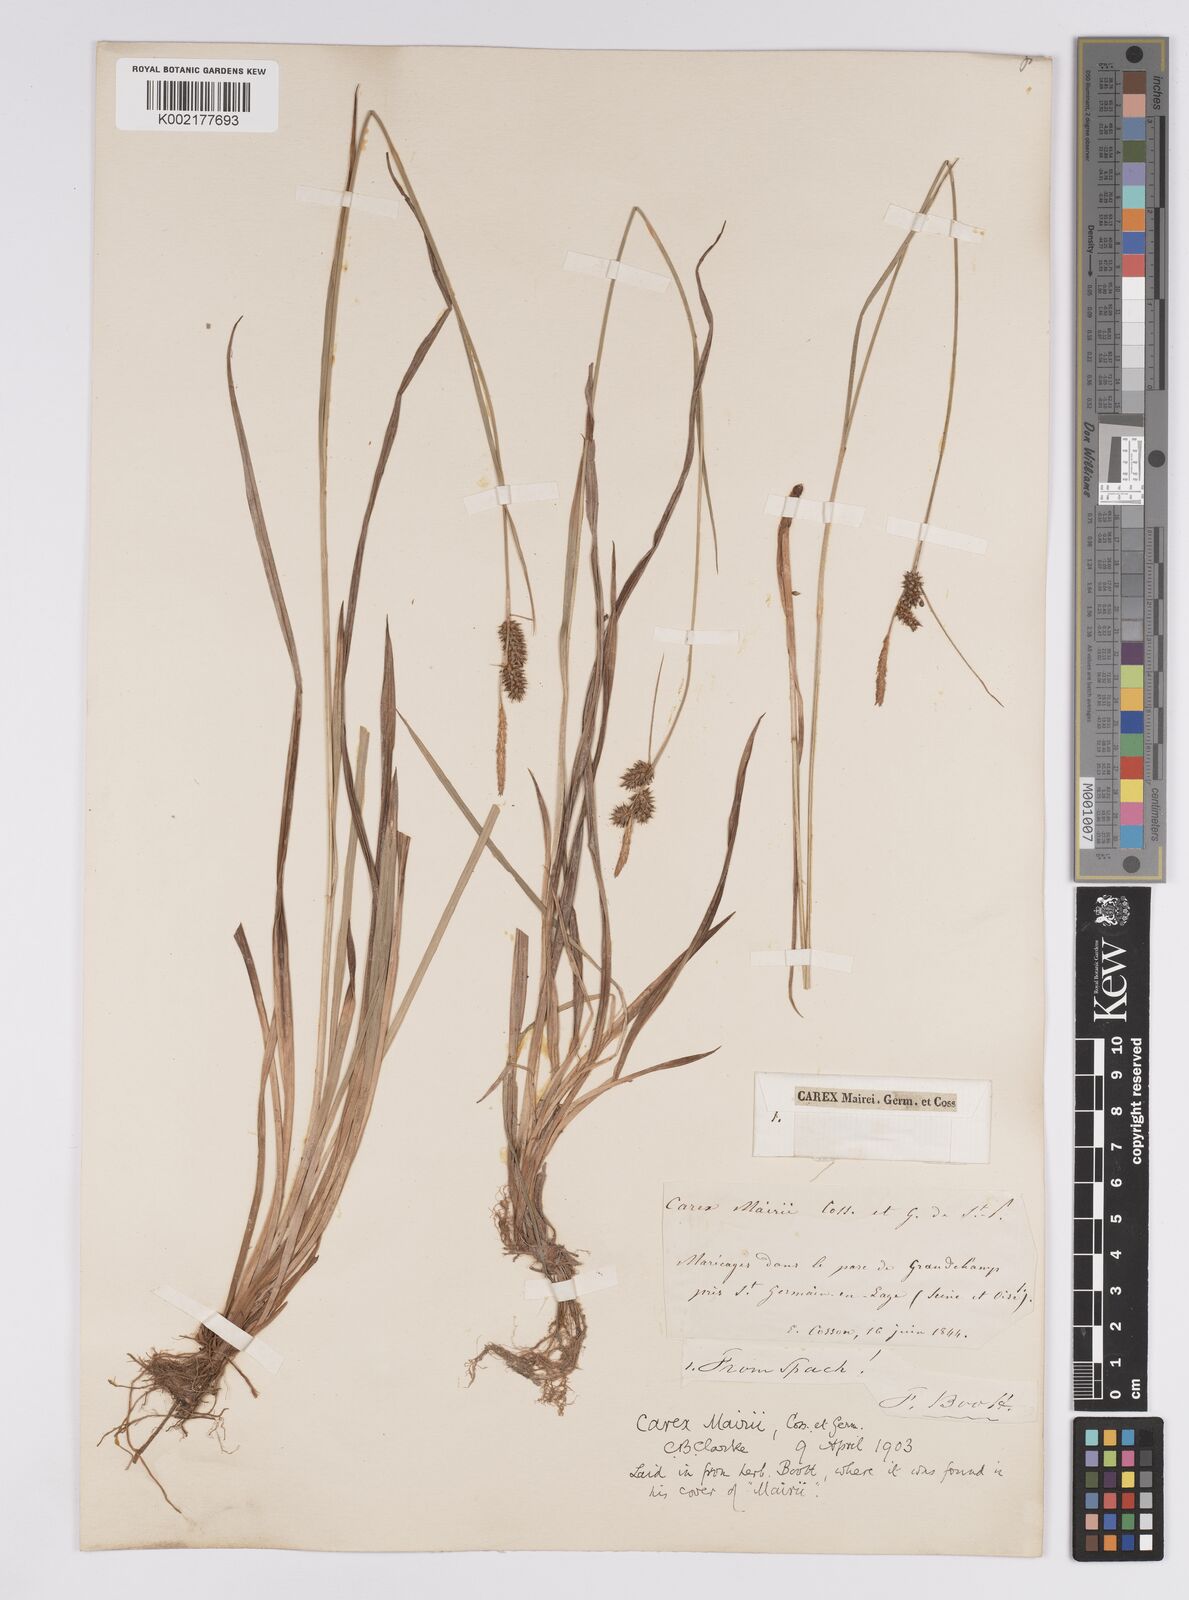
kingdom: Plantae
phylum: Tracheophyta
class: Liliopsida
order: Poales
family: Cyperaceae
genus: Carex
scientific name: Carex mairei
